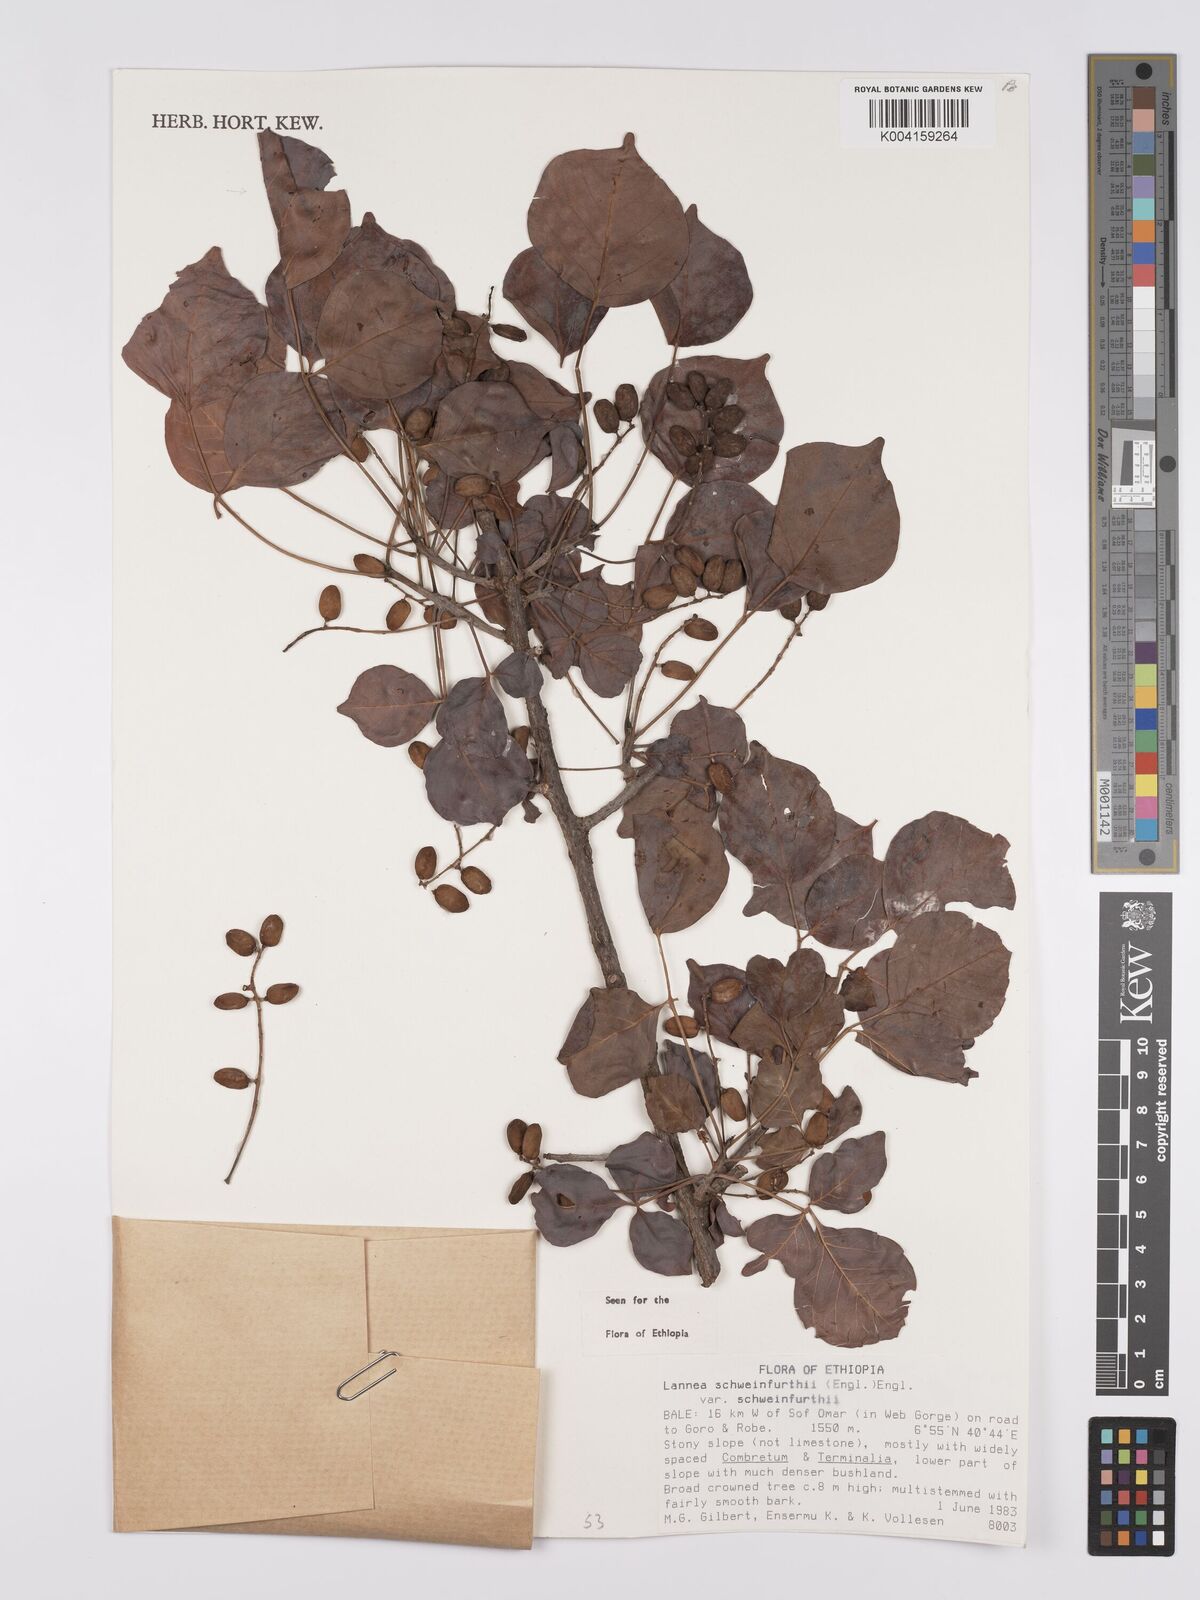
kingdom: Plantae
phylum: Tracheophyta
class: Magnoliopsida
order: Sapindales
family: Anacardiaceae
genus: Lannea
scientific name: Lannea schweinfurthii
